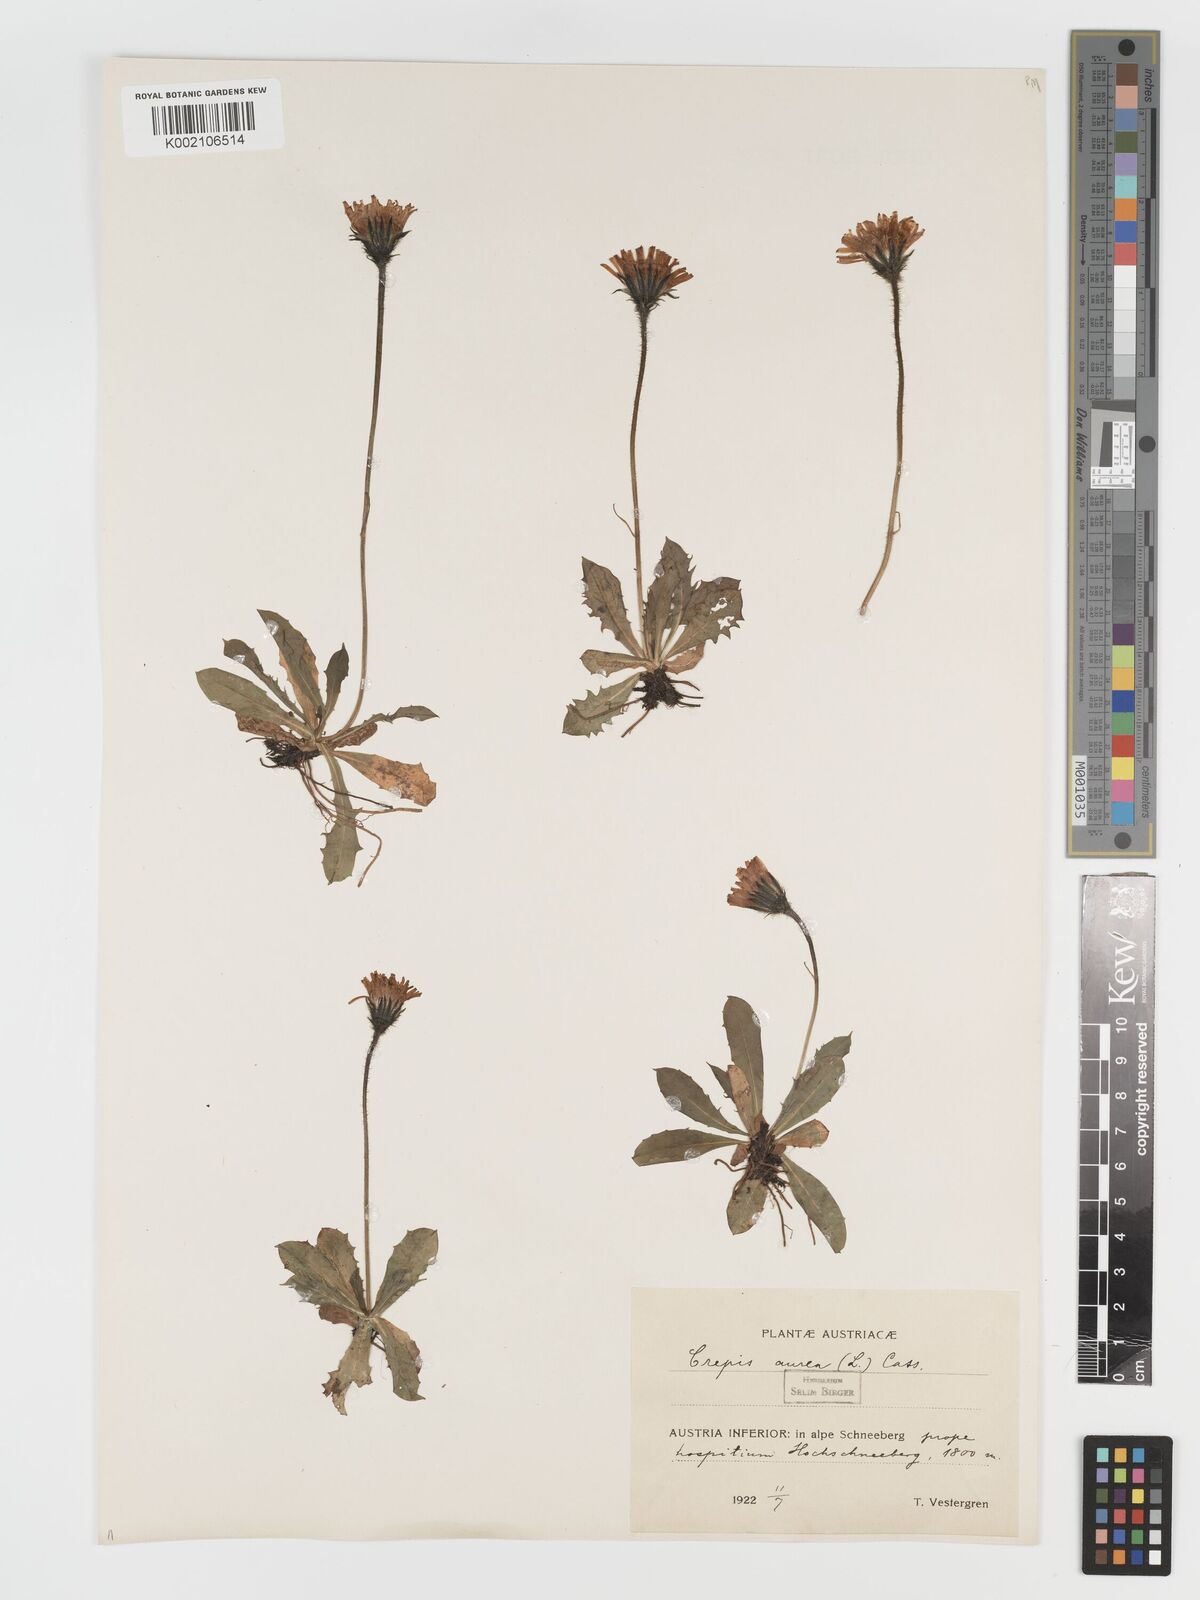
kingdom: Plantae
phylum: Tracheophyta
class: Magnoliopsida
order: Asterales
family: Asteraceae
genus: Crepis
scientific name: Crepis aurea
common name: Golden hawk's-beard
